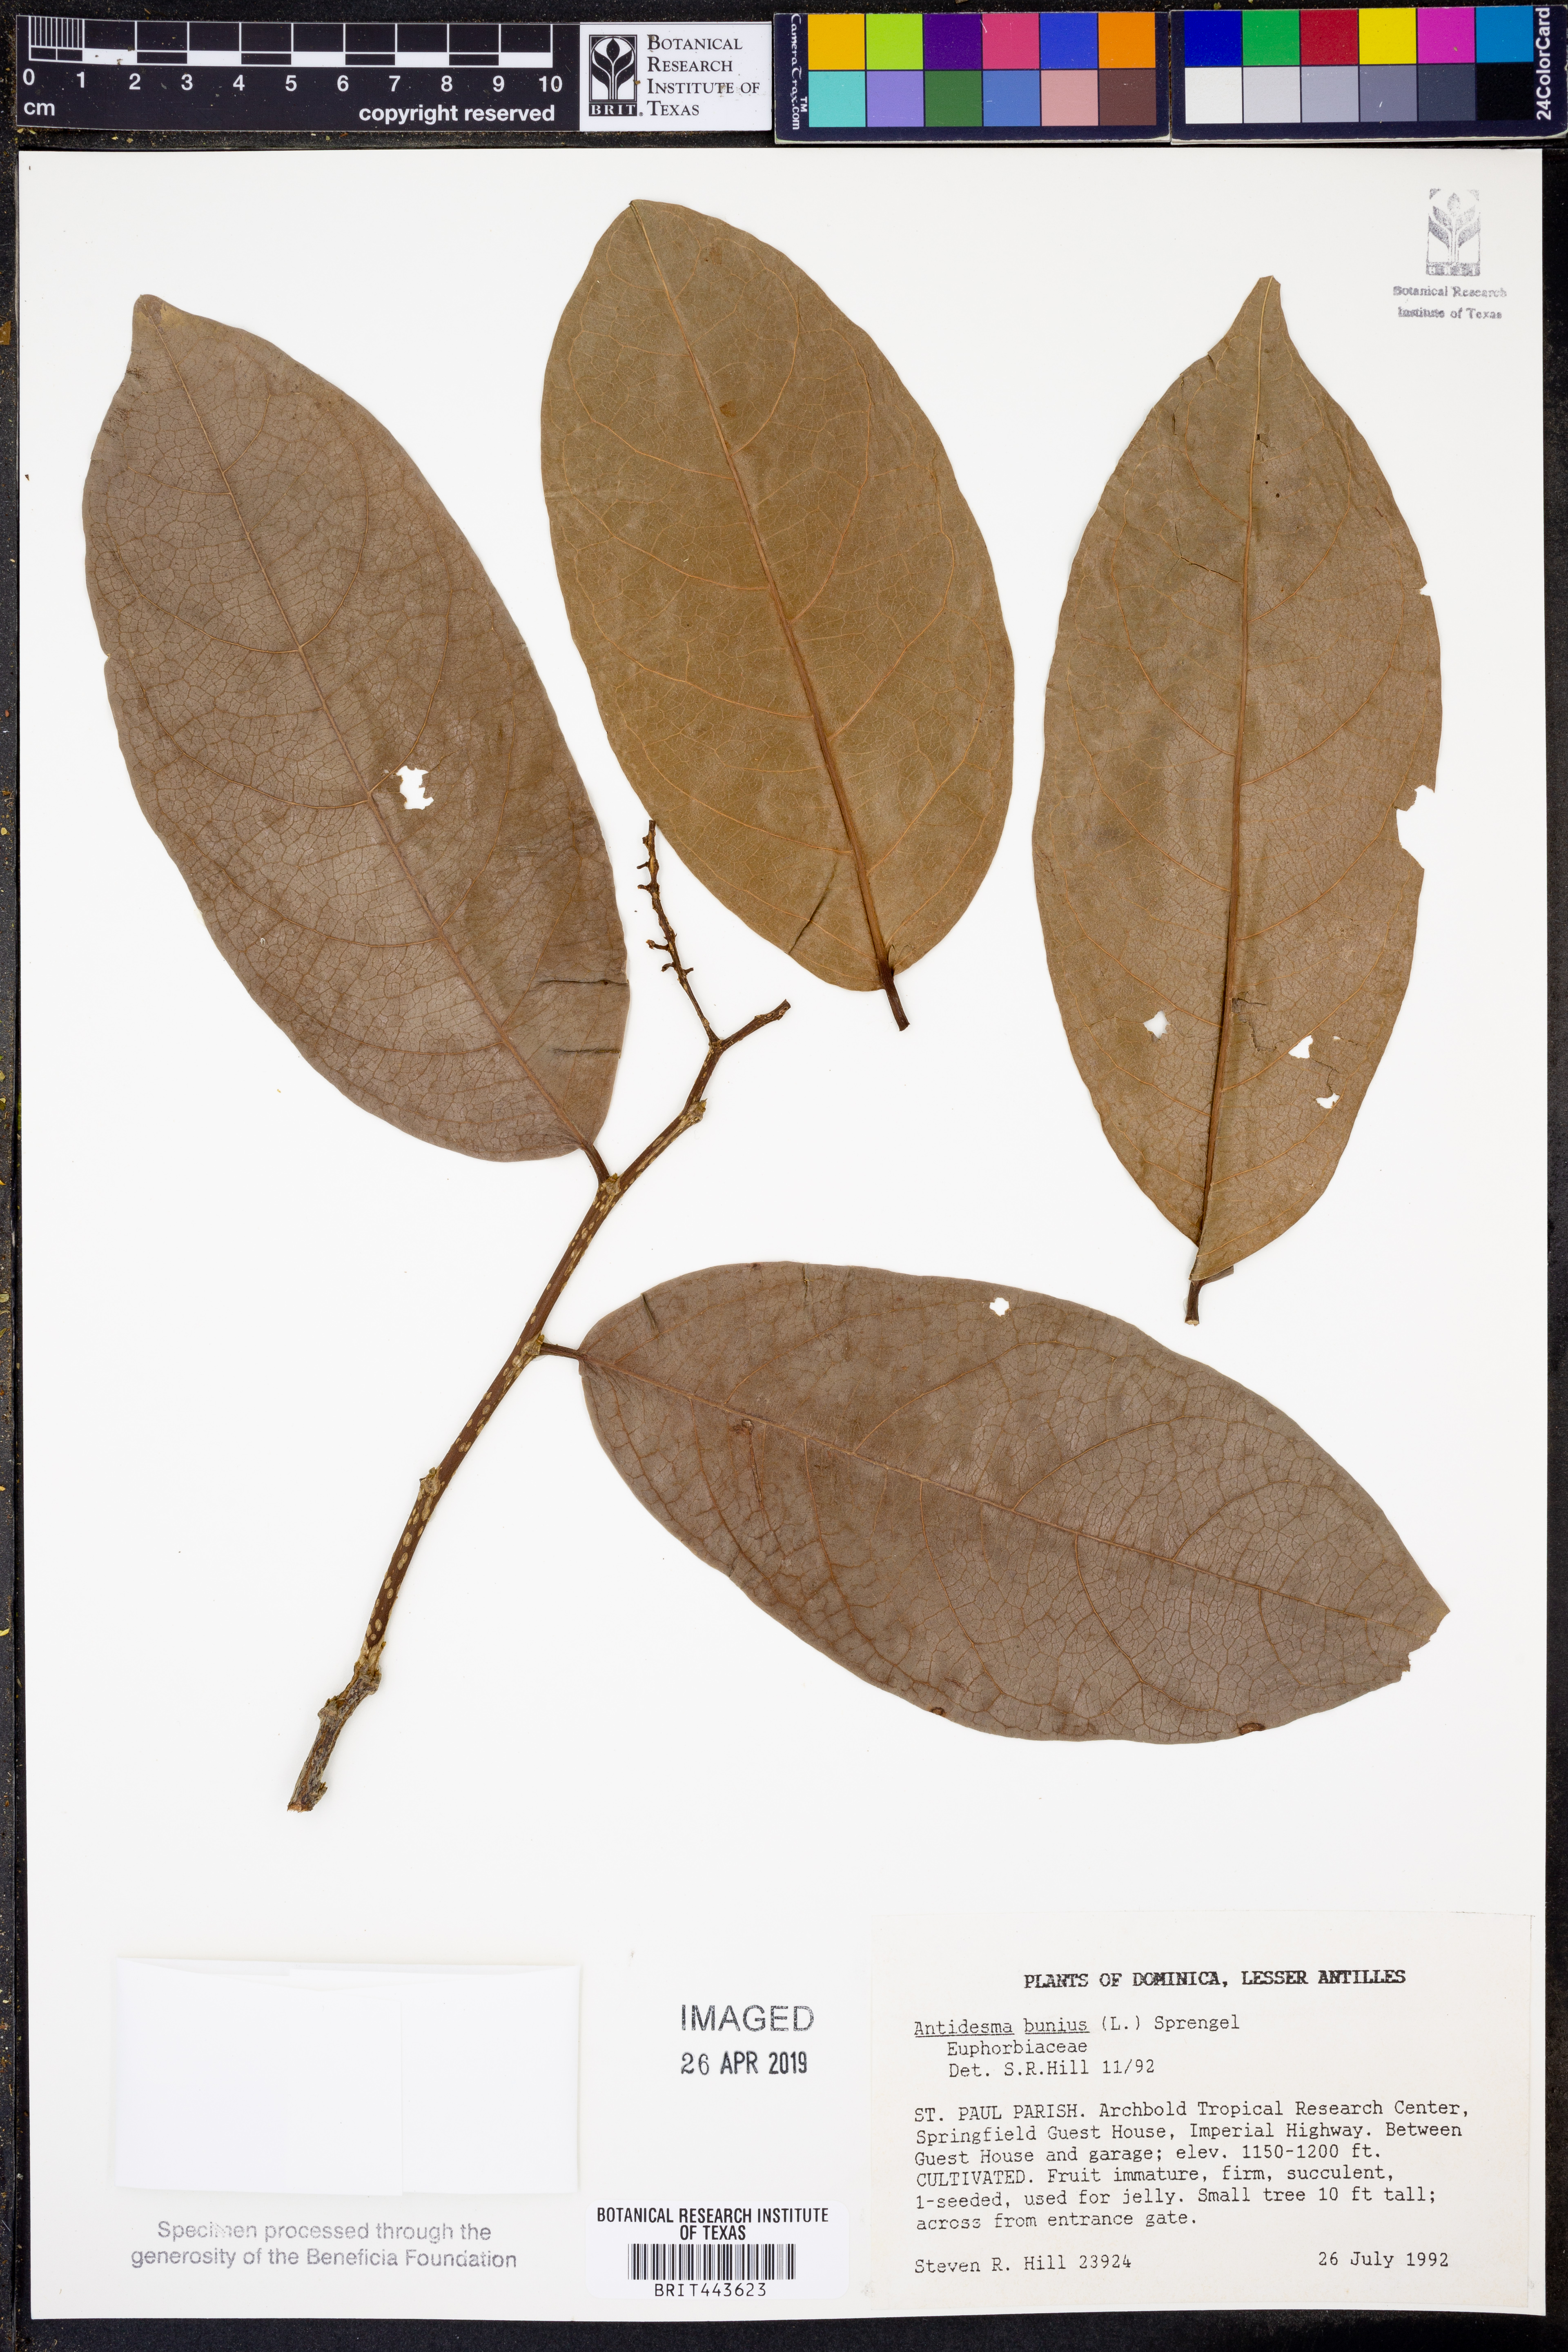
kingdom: Plantae
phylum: Tracheophyta
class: Magnoliopsida
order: Malpighiales
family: Phyllanthaceae
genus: Antidesma
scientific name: Antidesma bunius
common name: Chinese-laurel
